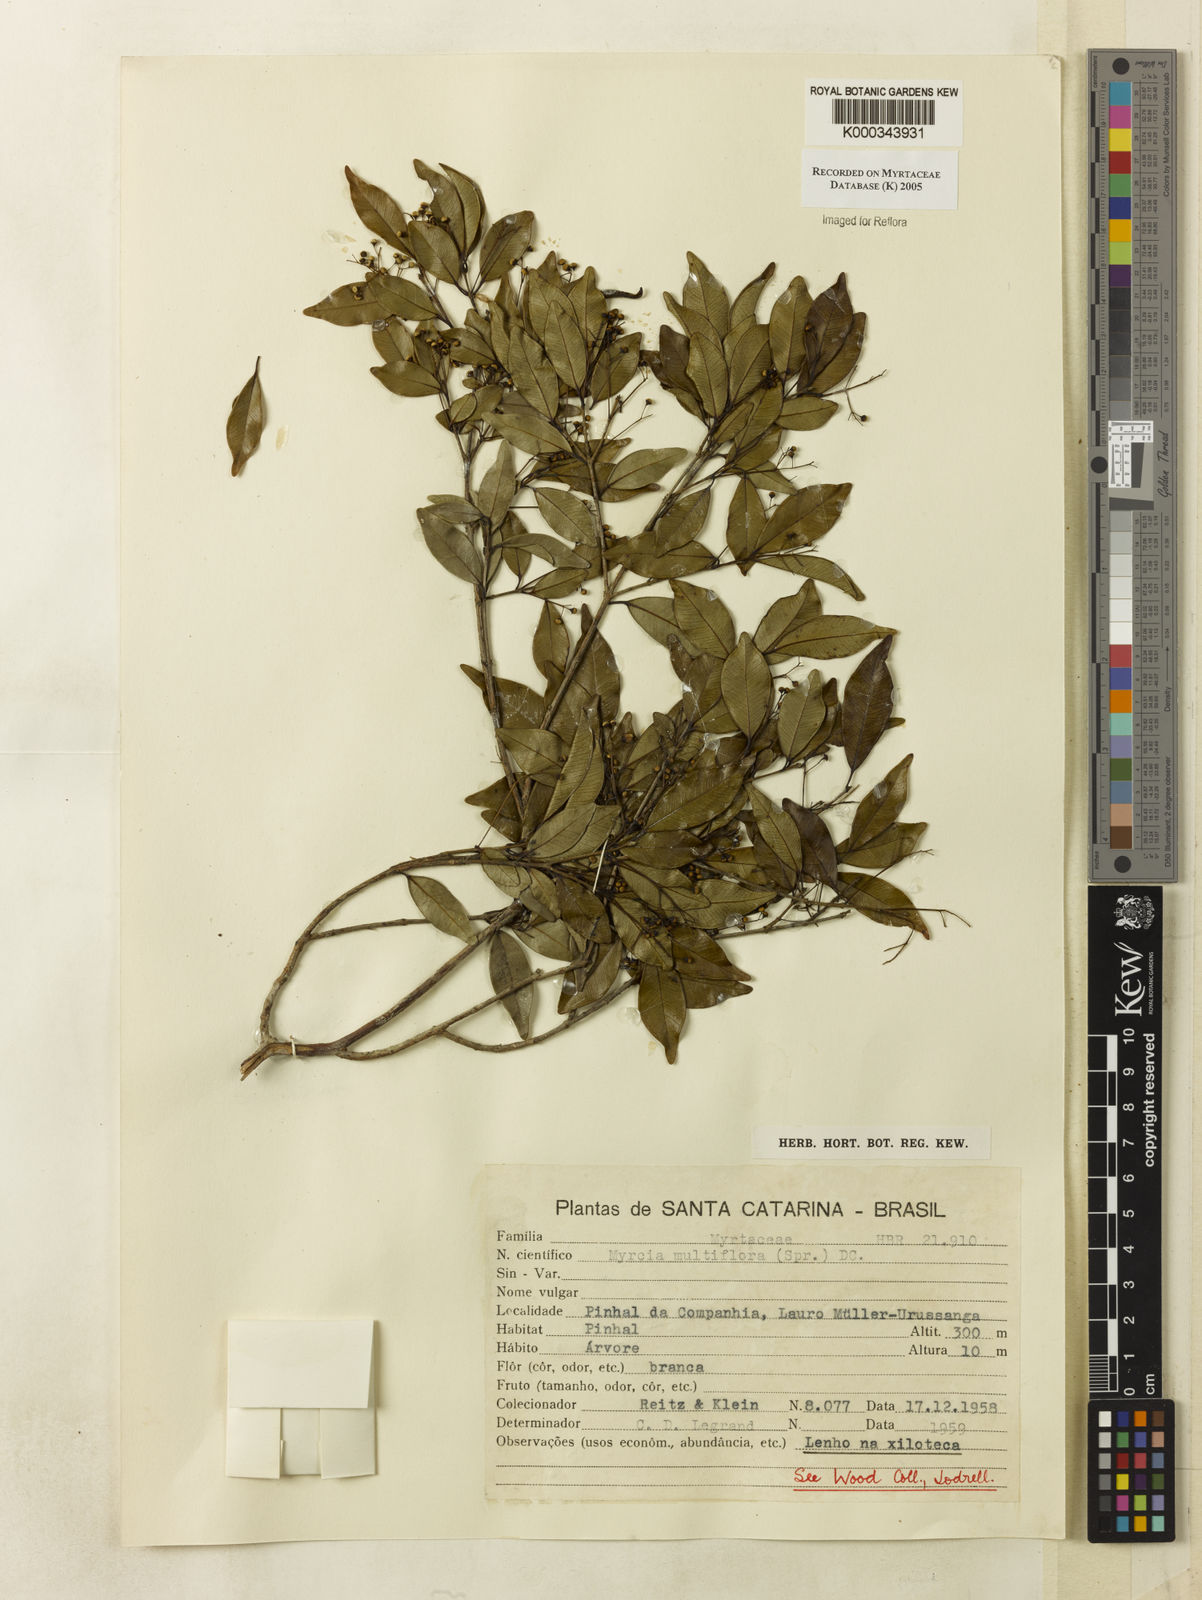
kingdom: Plantae
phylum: Tracheophyta
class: Magnoliopsida
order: Myrtales
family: Myrtaceae
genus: Myrcia
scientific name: Myrcia multiflora
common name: Pedra hume
